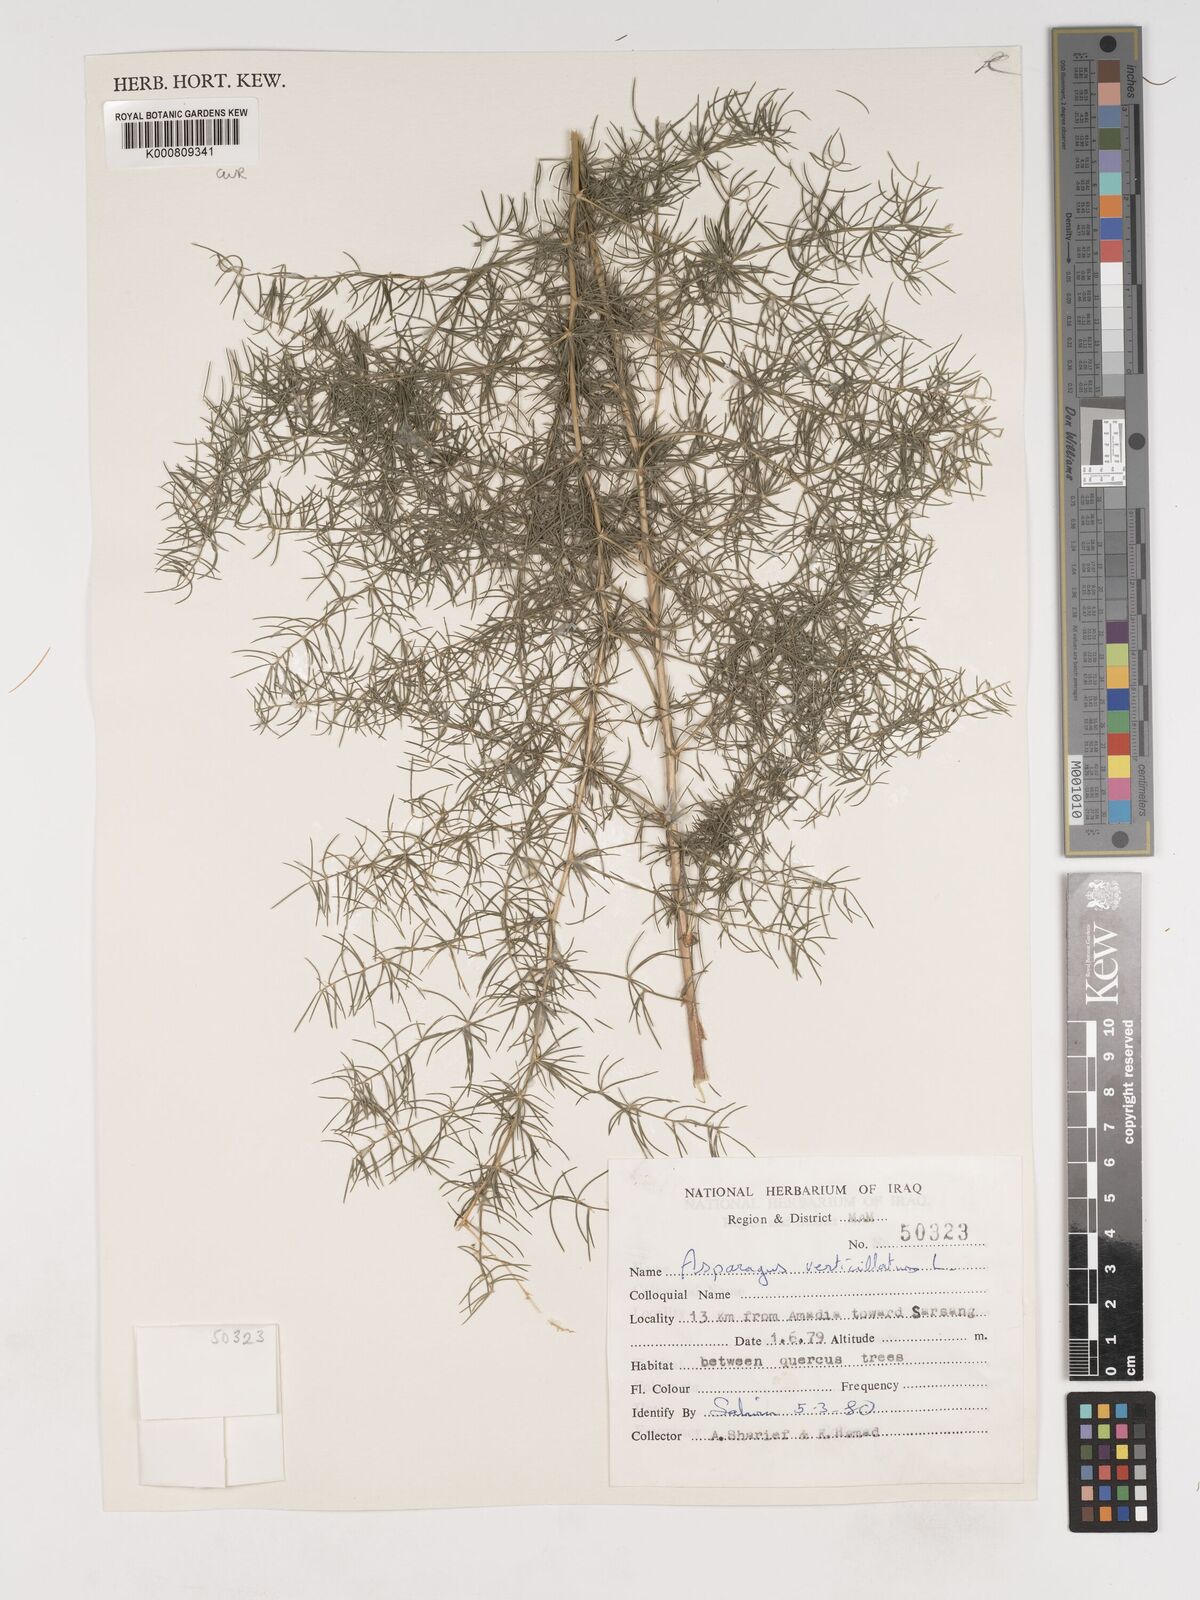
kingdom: Plantae
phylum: Tracheophyta
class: Liliopsida
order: Asparagales
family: Asparagaceae
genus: Asparagus
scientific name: Asparagus verticillatus
